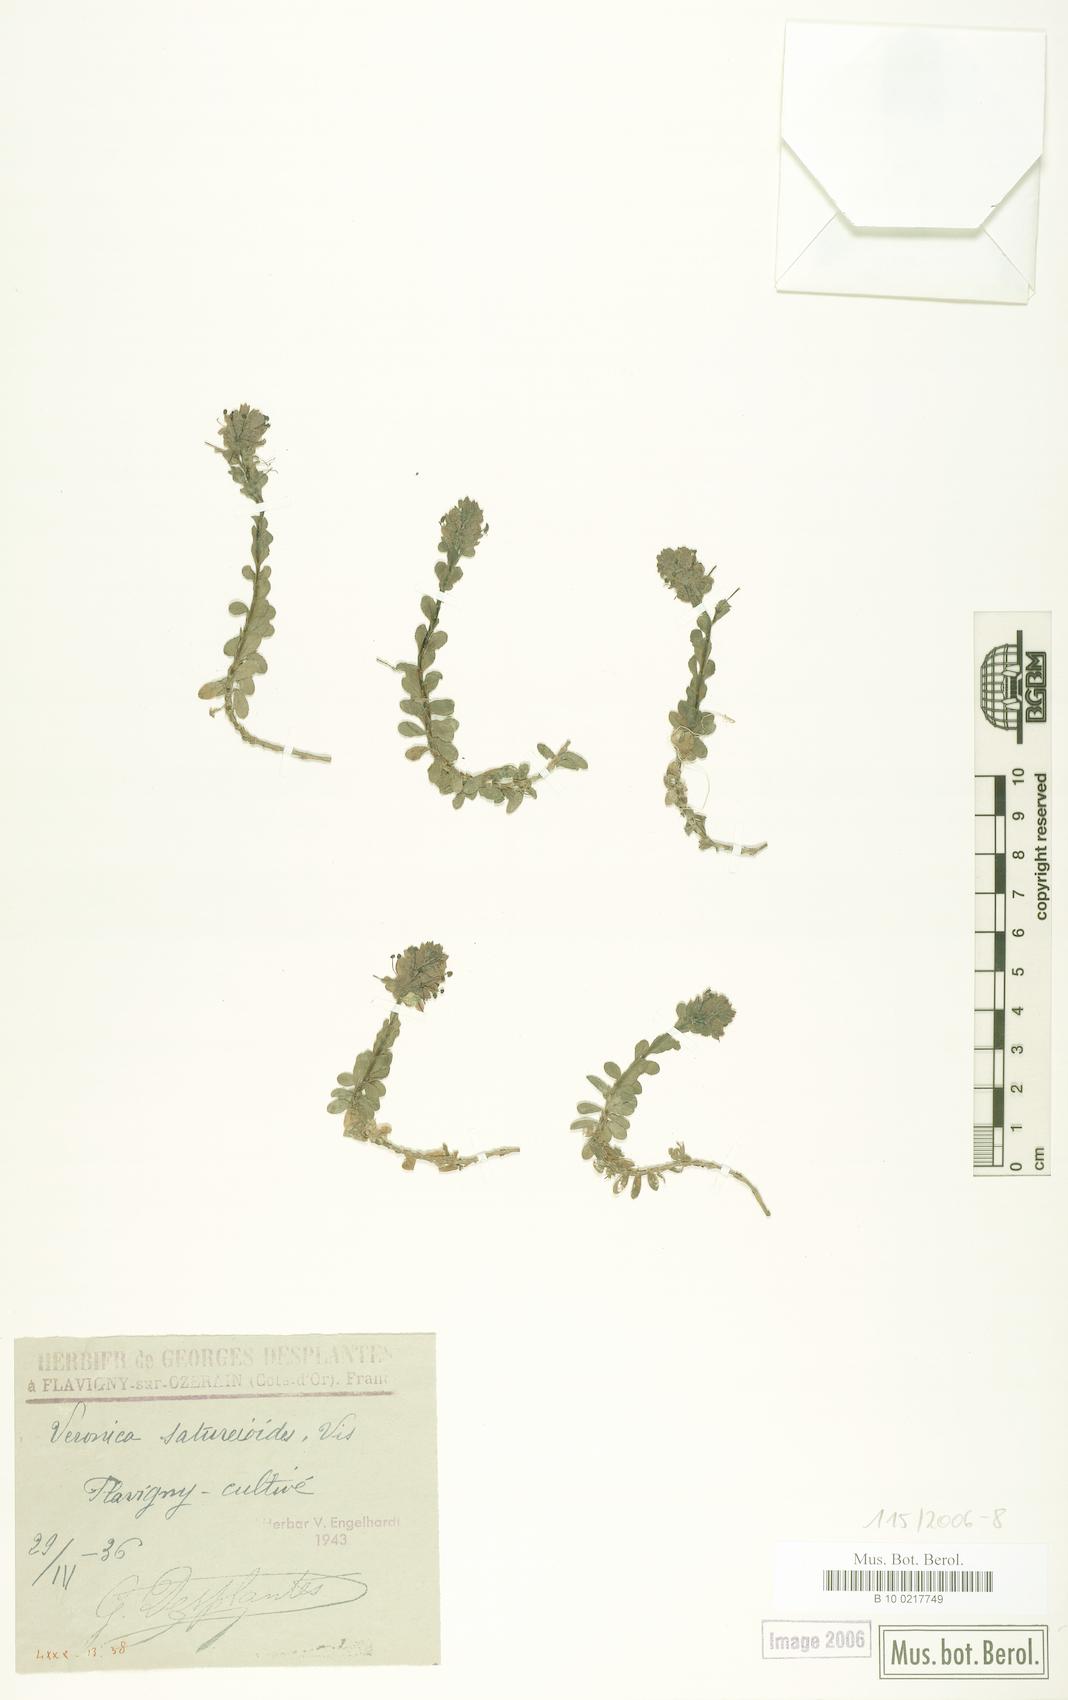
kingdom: Plantae
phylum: Tracheophyta
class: Magnoliopsida
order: Lamiales
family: Plantaginaceae
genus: Veronica
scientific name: Veronica saturejoides
